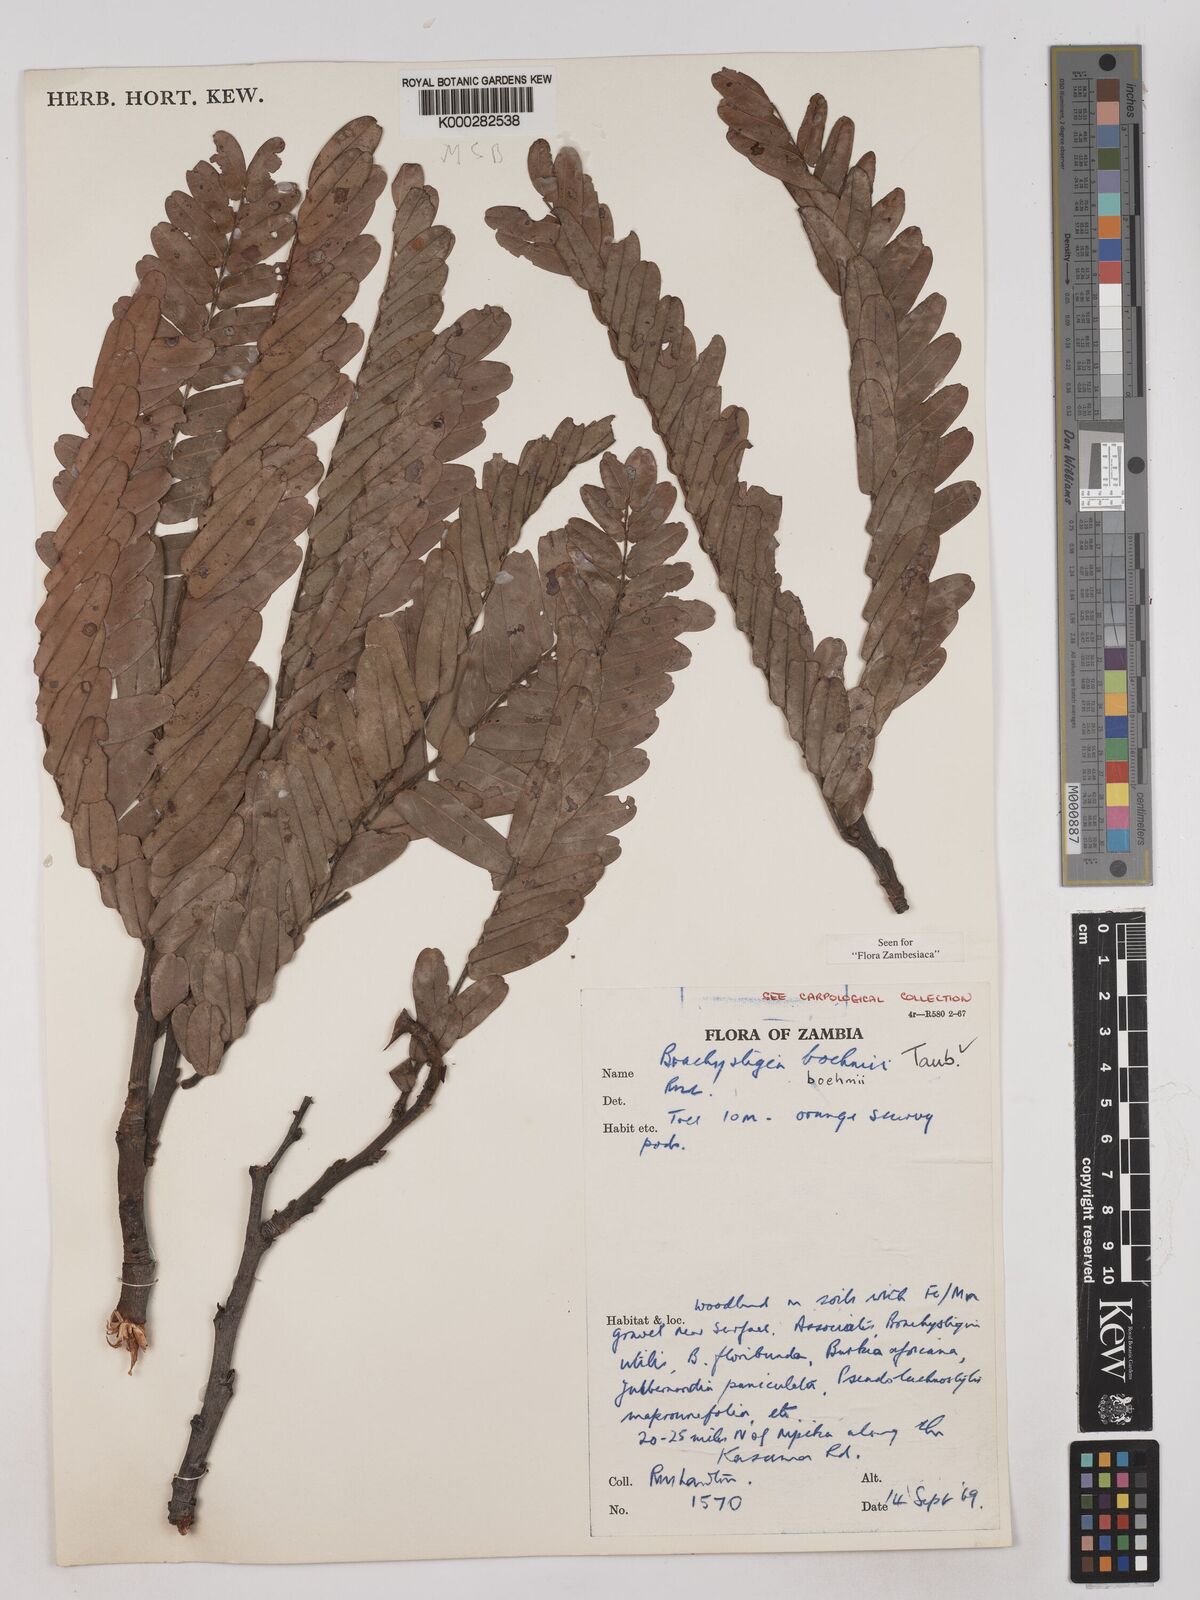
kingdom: Plantae
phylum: Tracheophyta
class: Magnoliopsida
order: Fabales
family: Fabaceae
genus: Brachystegia
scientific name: Brachystegia boehmii
